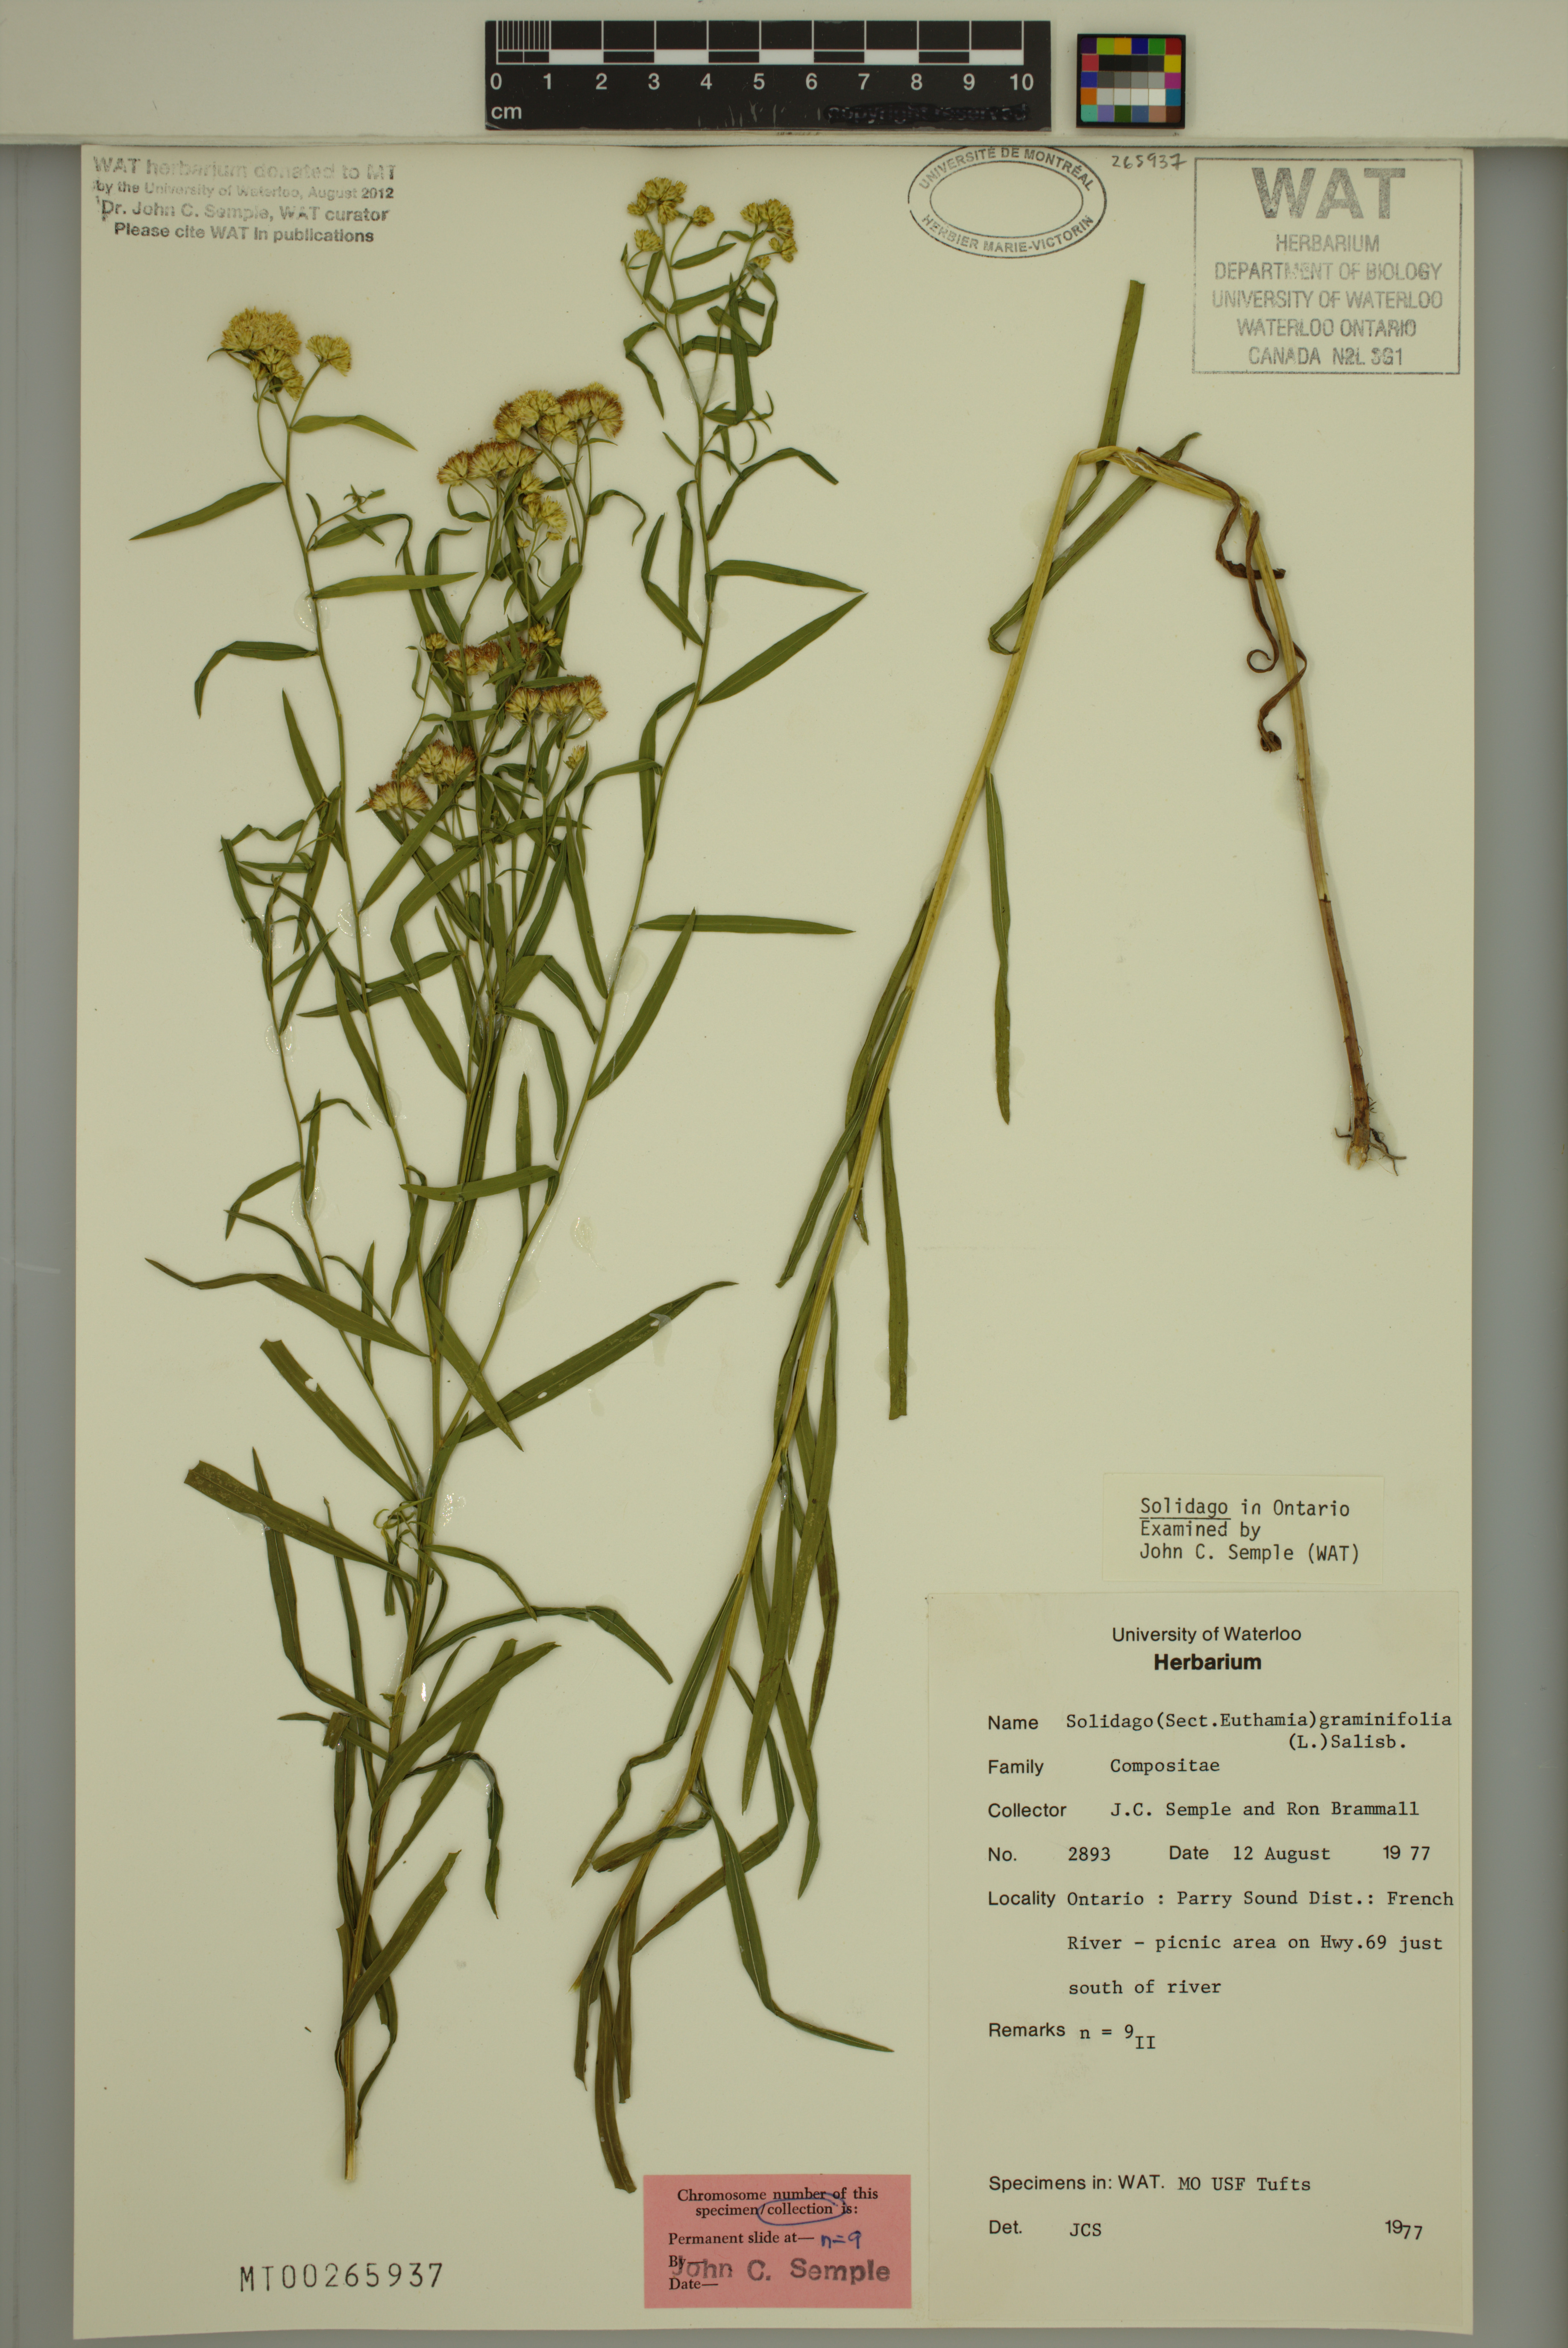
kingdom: Plantae
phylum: Tracheophyta
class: Magnoliopsida
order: Asterales
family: Asteraceae
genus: Euthamia
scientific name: Euthamia graminifolia
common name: Common goldentop
